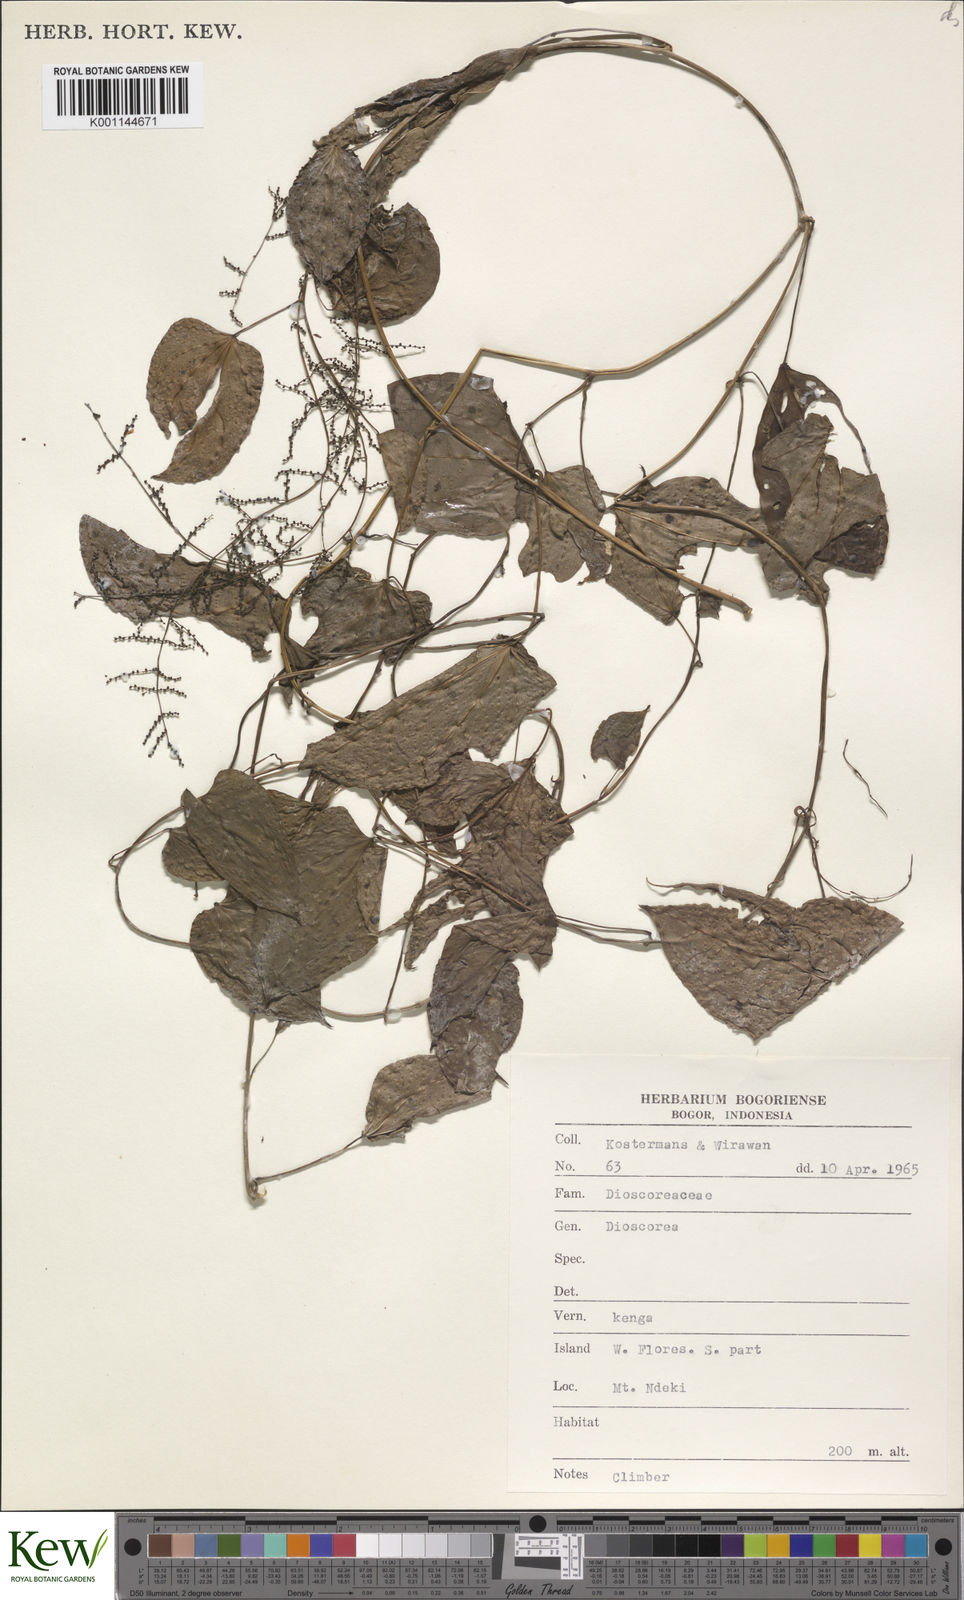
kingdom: Plantae
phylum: Tracheophyta
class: Liliopsida
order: Dioscoreales
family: Dioscoreaceae
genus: Dioscorea
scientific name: Dioscorea
